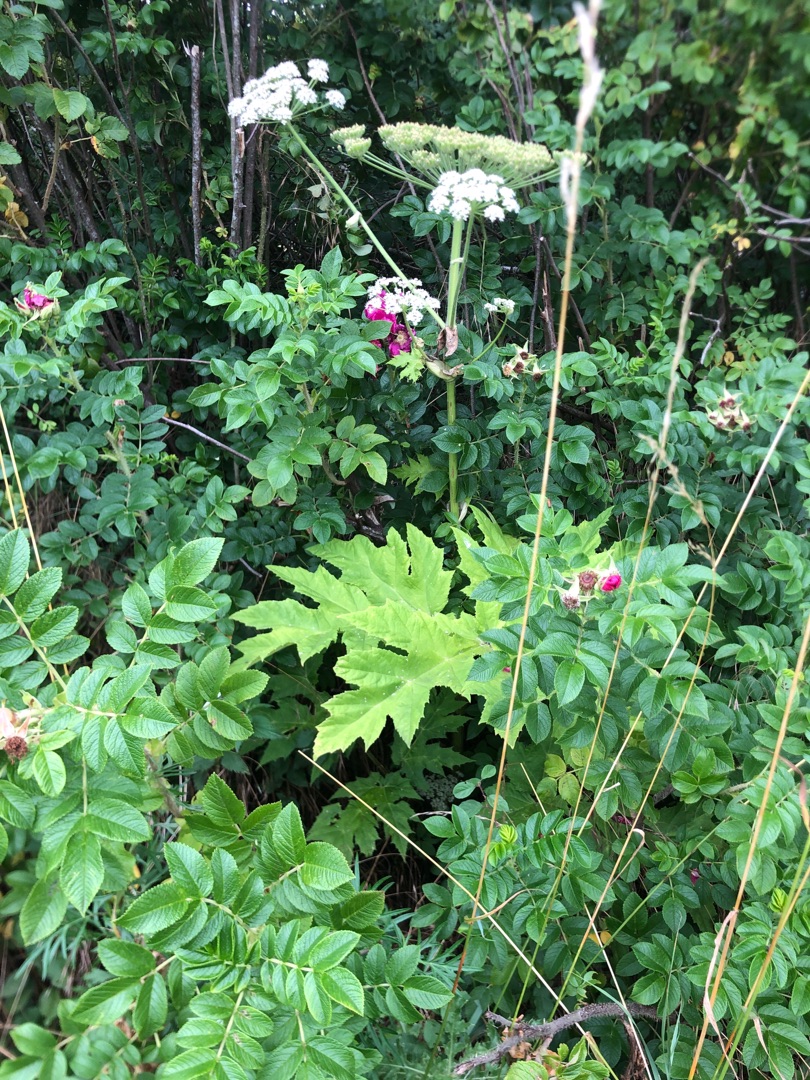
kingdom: Plantae
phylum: Tracheophyta
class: Magnoliopsida
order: Apiales
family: Apiaceae
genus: Heracleum
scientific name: Heracleum mantegazzianum
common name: Kæmpe-bjørneklo
